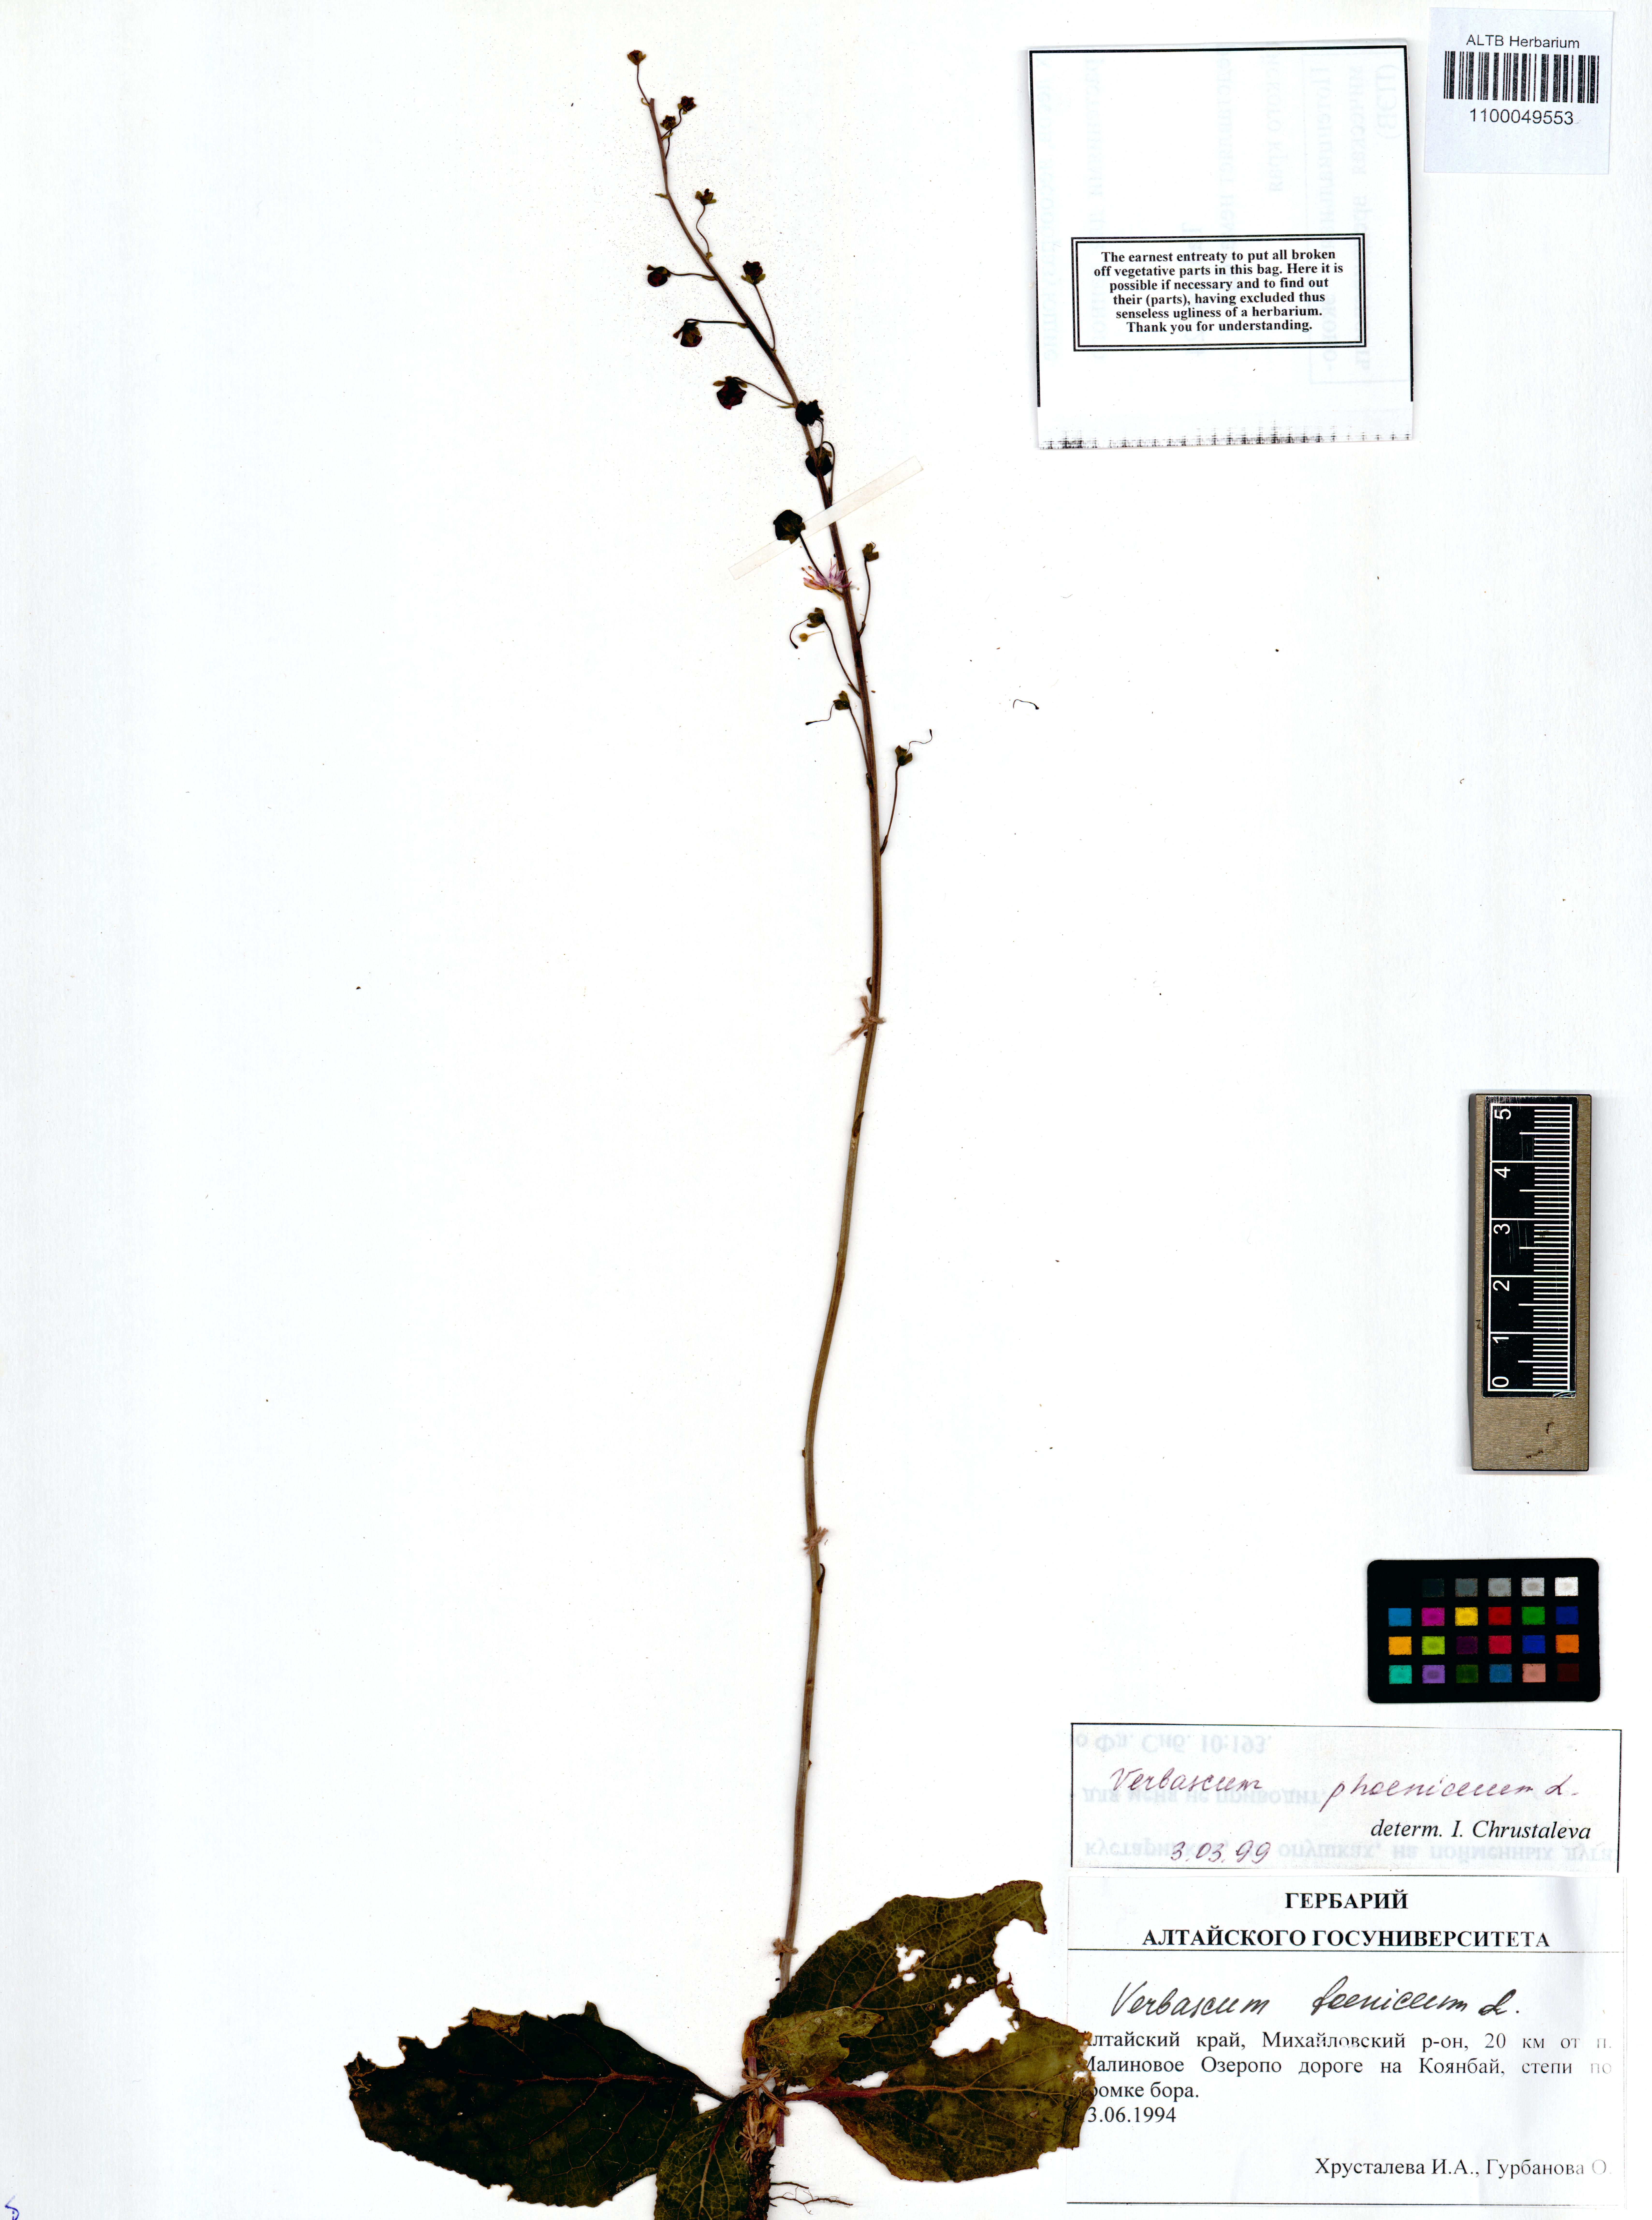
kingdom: Plantae
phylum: Tracheophyta
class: Magnoliopsida
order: Lamiales
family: Scrophulariaceae
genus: Verbascum
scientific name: Verbascum phoeniceum
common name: Purple mullein
